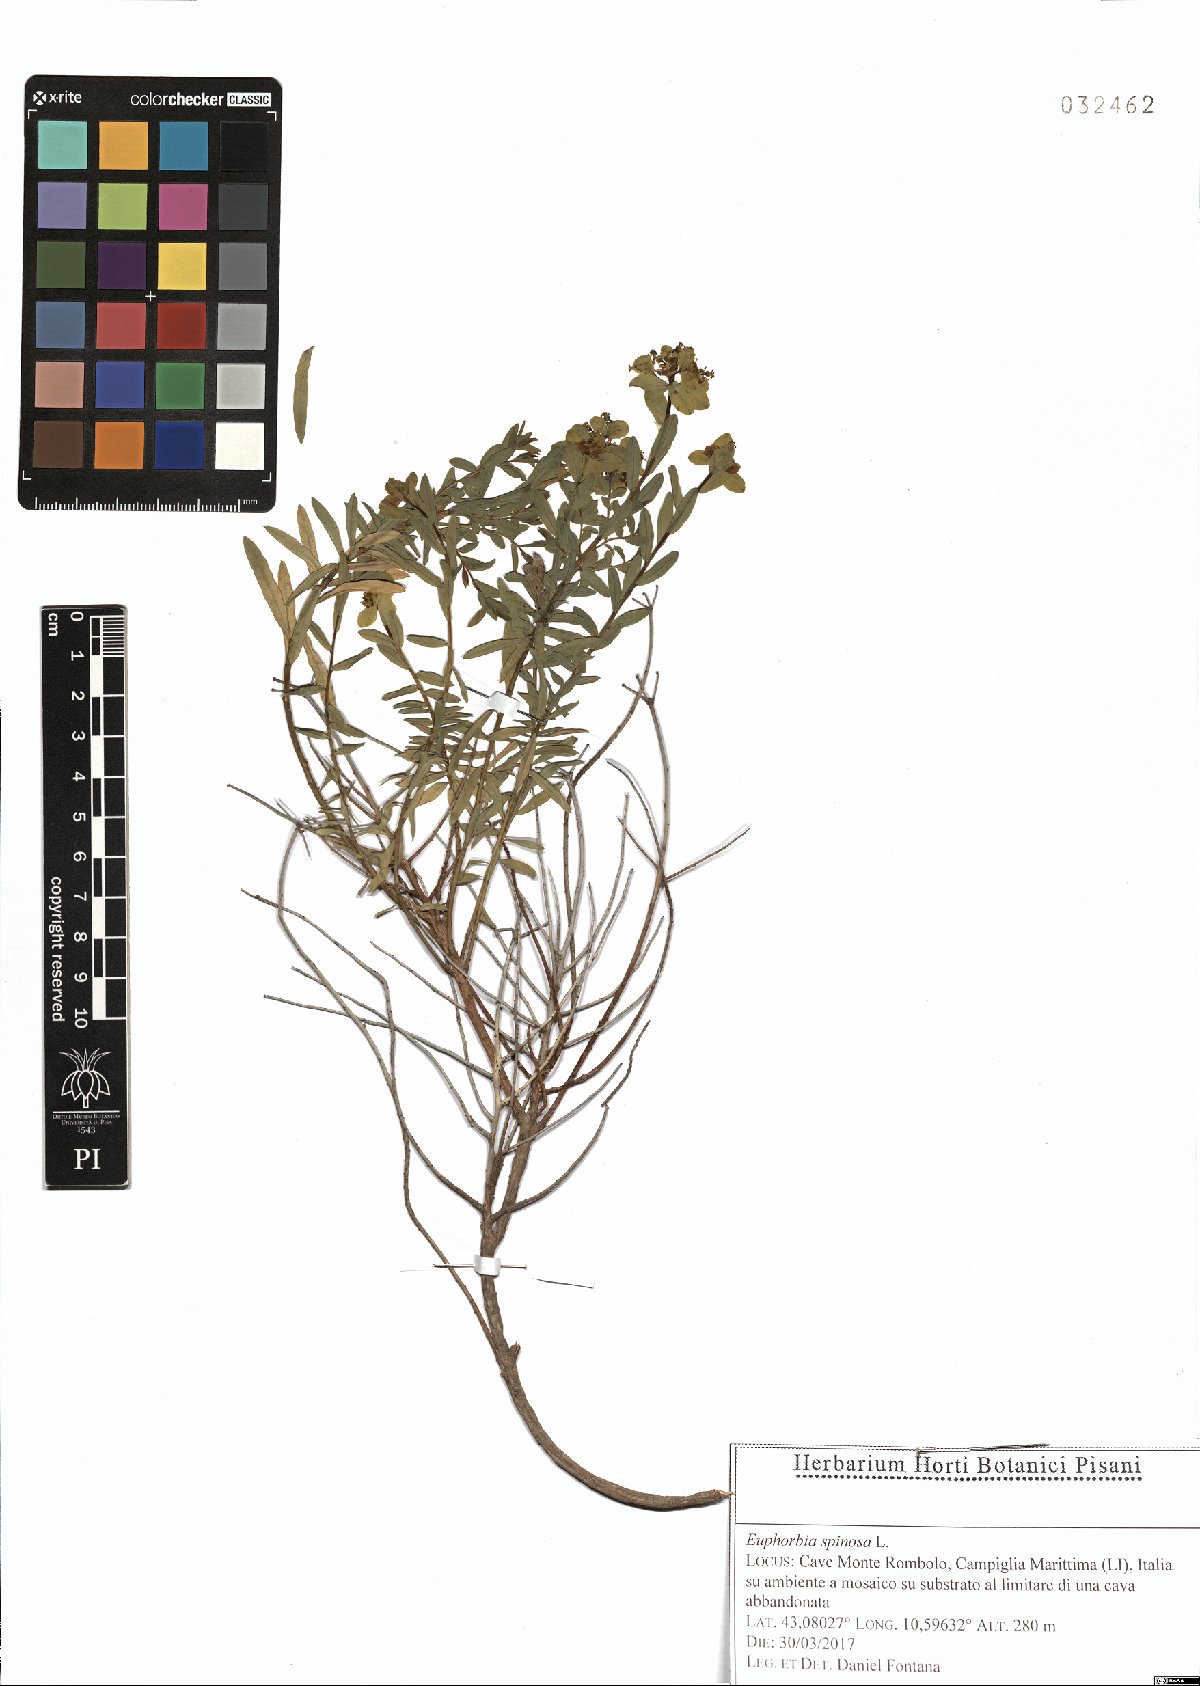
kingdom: Plantae
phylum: Tracheophyta
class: Magnoliopsida
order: Malpighiales
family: Euphorbiaceae
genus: Euphorbia
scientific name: Euphorbia spinosa
